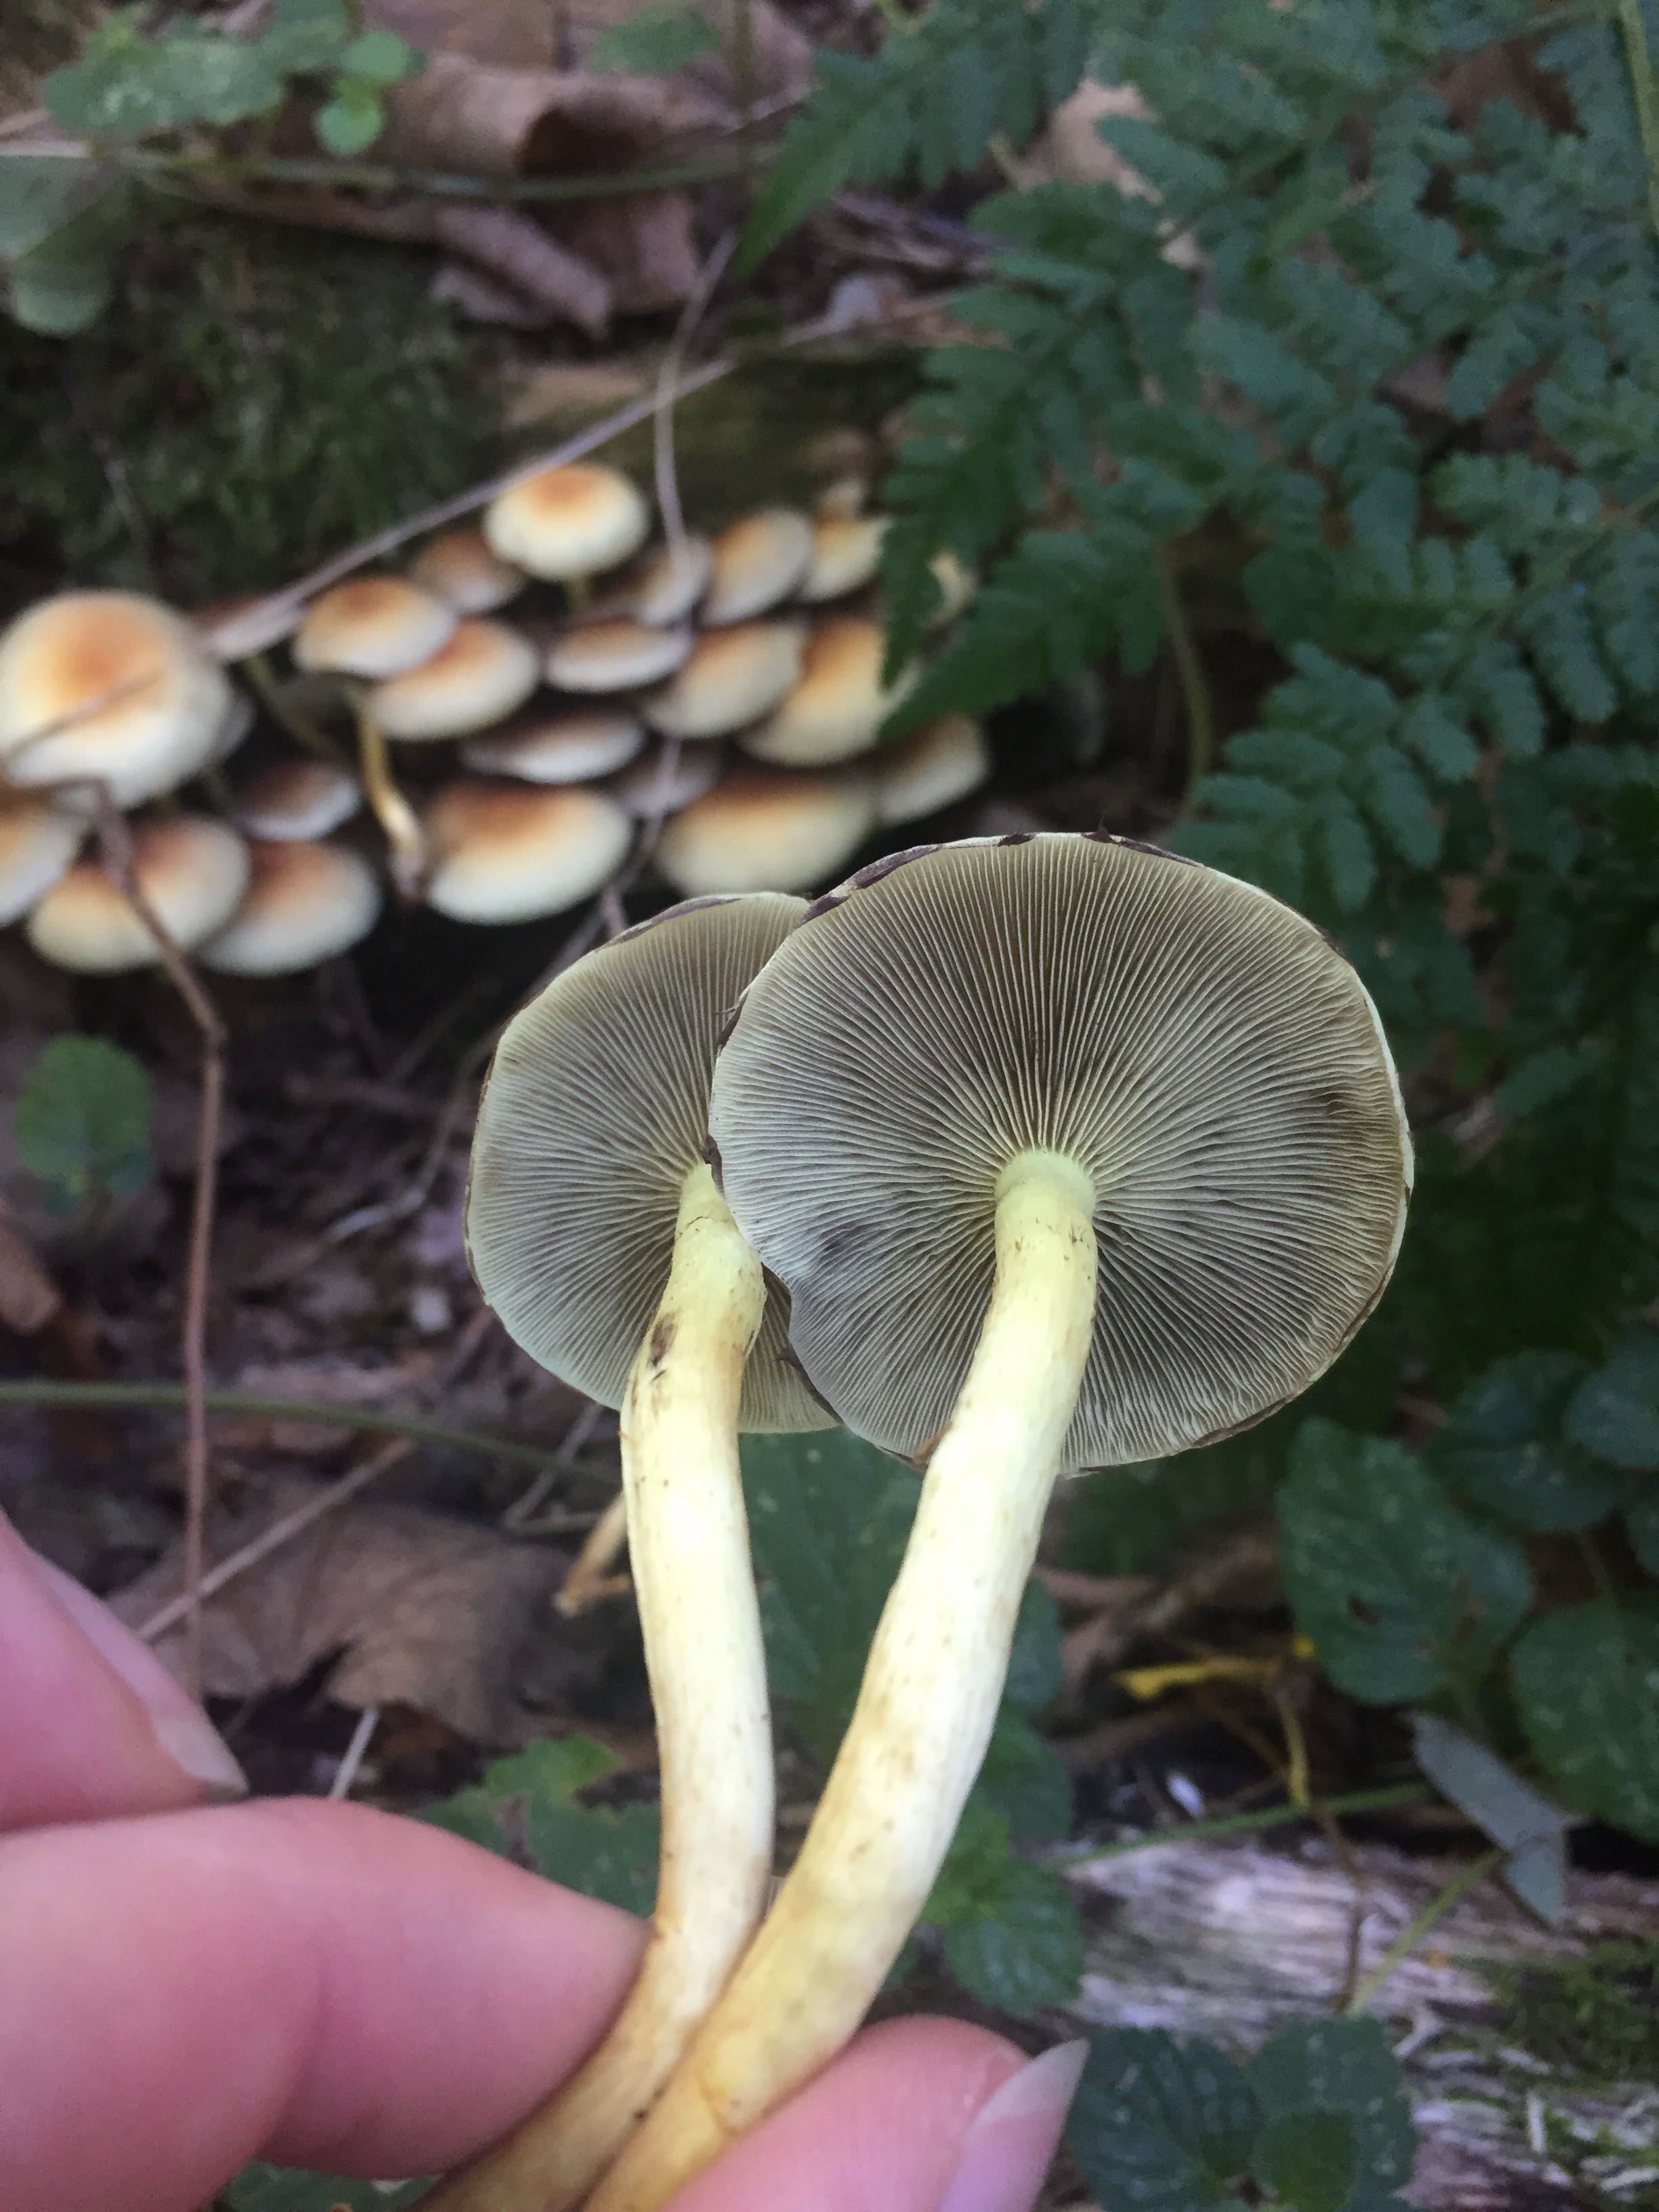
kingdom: Fungi
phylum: Basidiomycota
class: Agaricomycetes
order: Agaricales
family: Strophariaceae
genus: Hypholoma
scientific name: Hypholoma fasciculare
